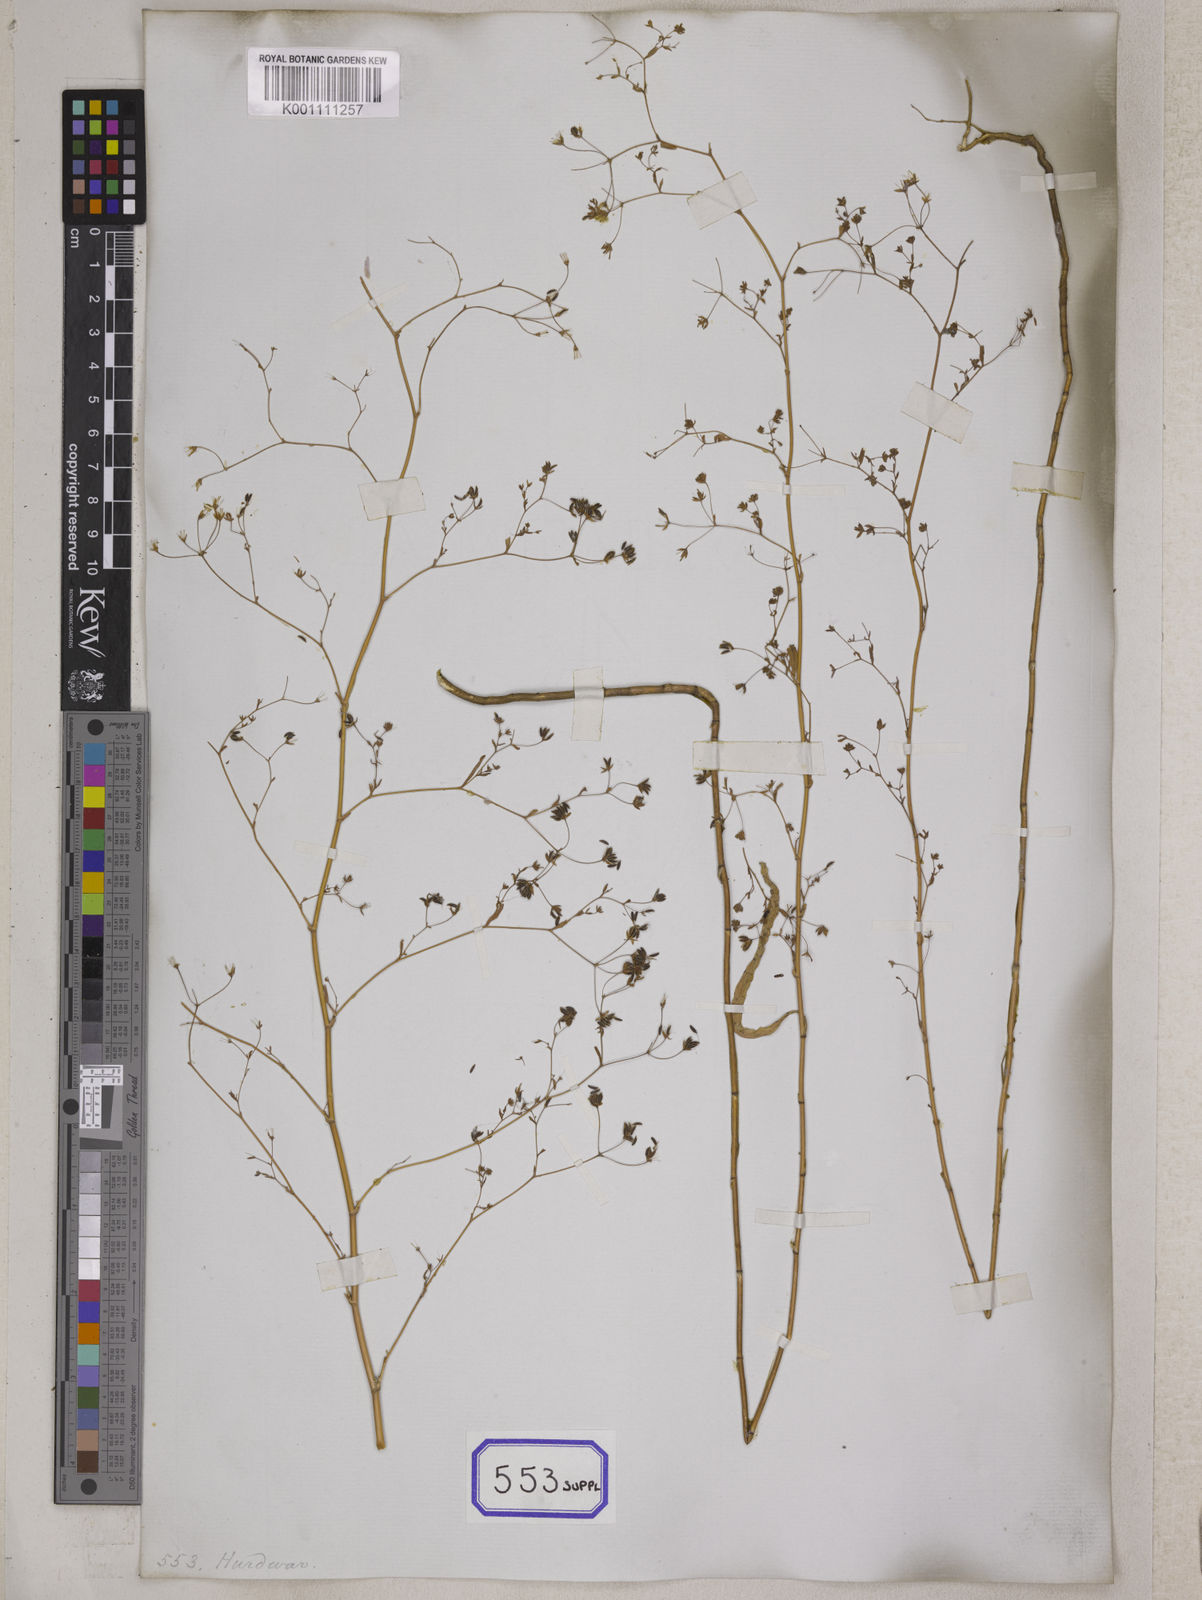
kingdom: Plantae
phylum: Tracheophyta
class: Magnoliopsida
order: Apiales
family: Apiaceae
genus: Bupleurum
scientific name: Bupleurum
